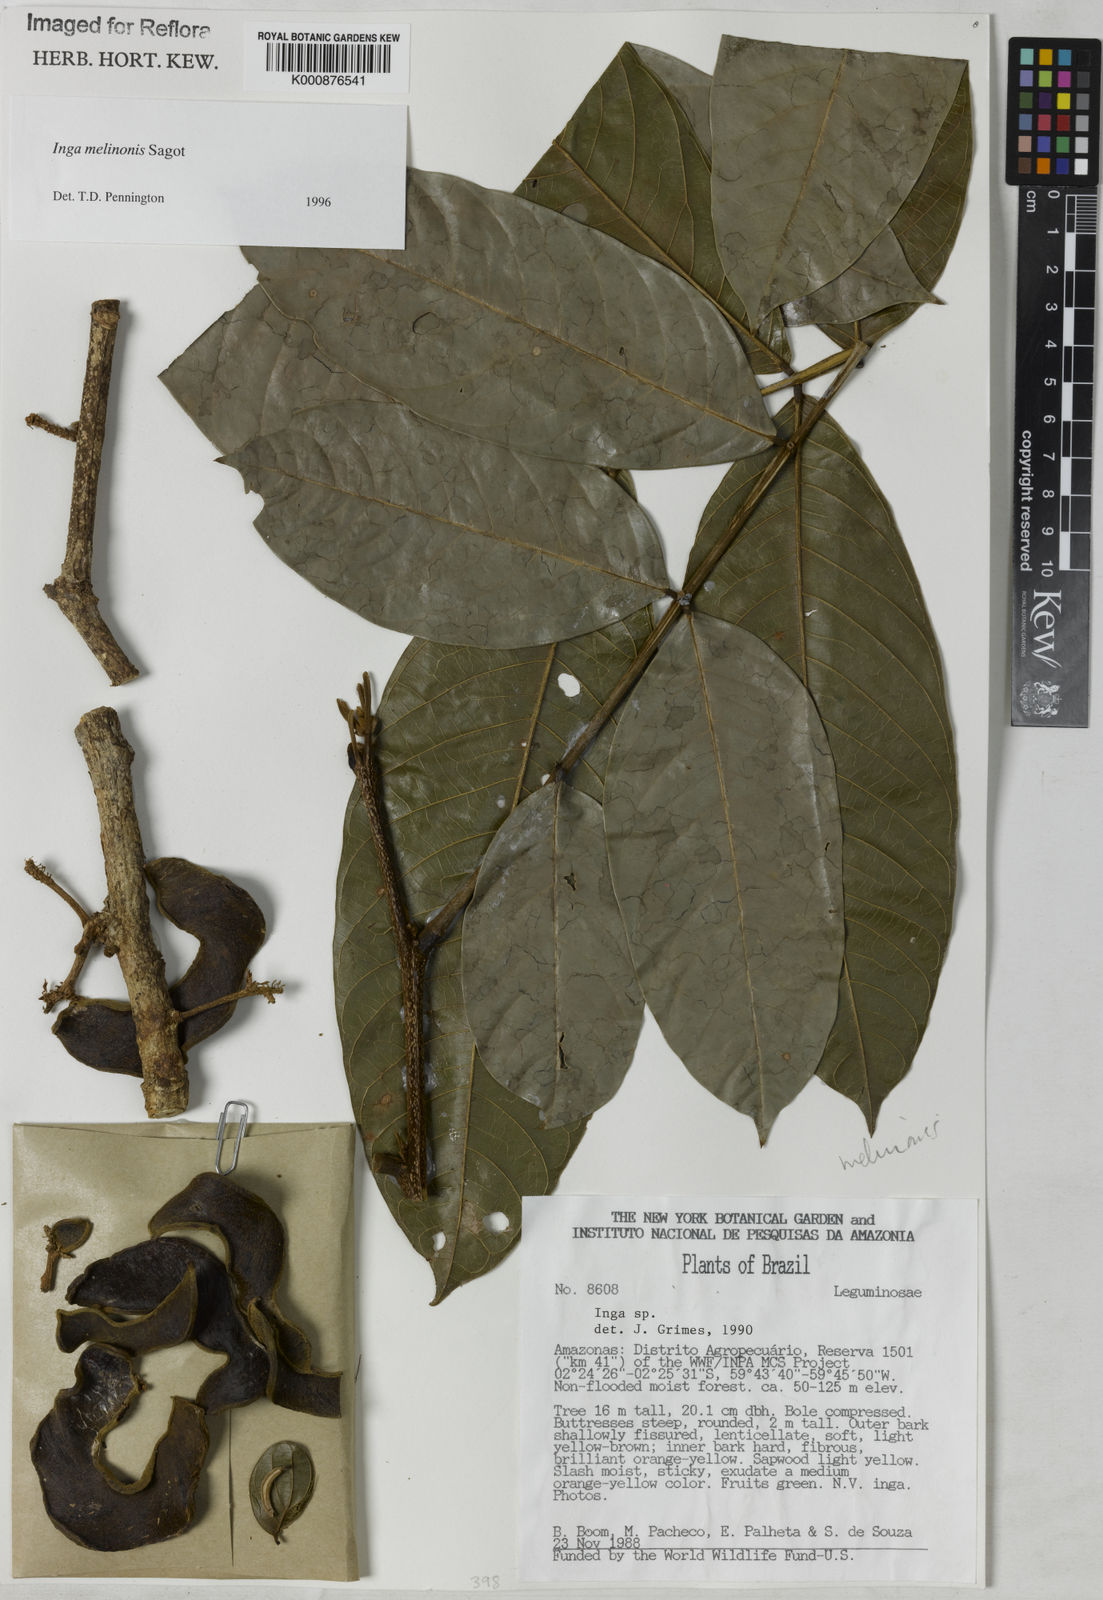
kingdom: Plantae
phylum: Tracheophyta
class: Magnoliopsida
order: Fabales
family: Fabaceae
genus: Inga
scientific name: Inga ruiziana
